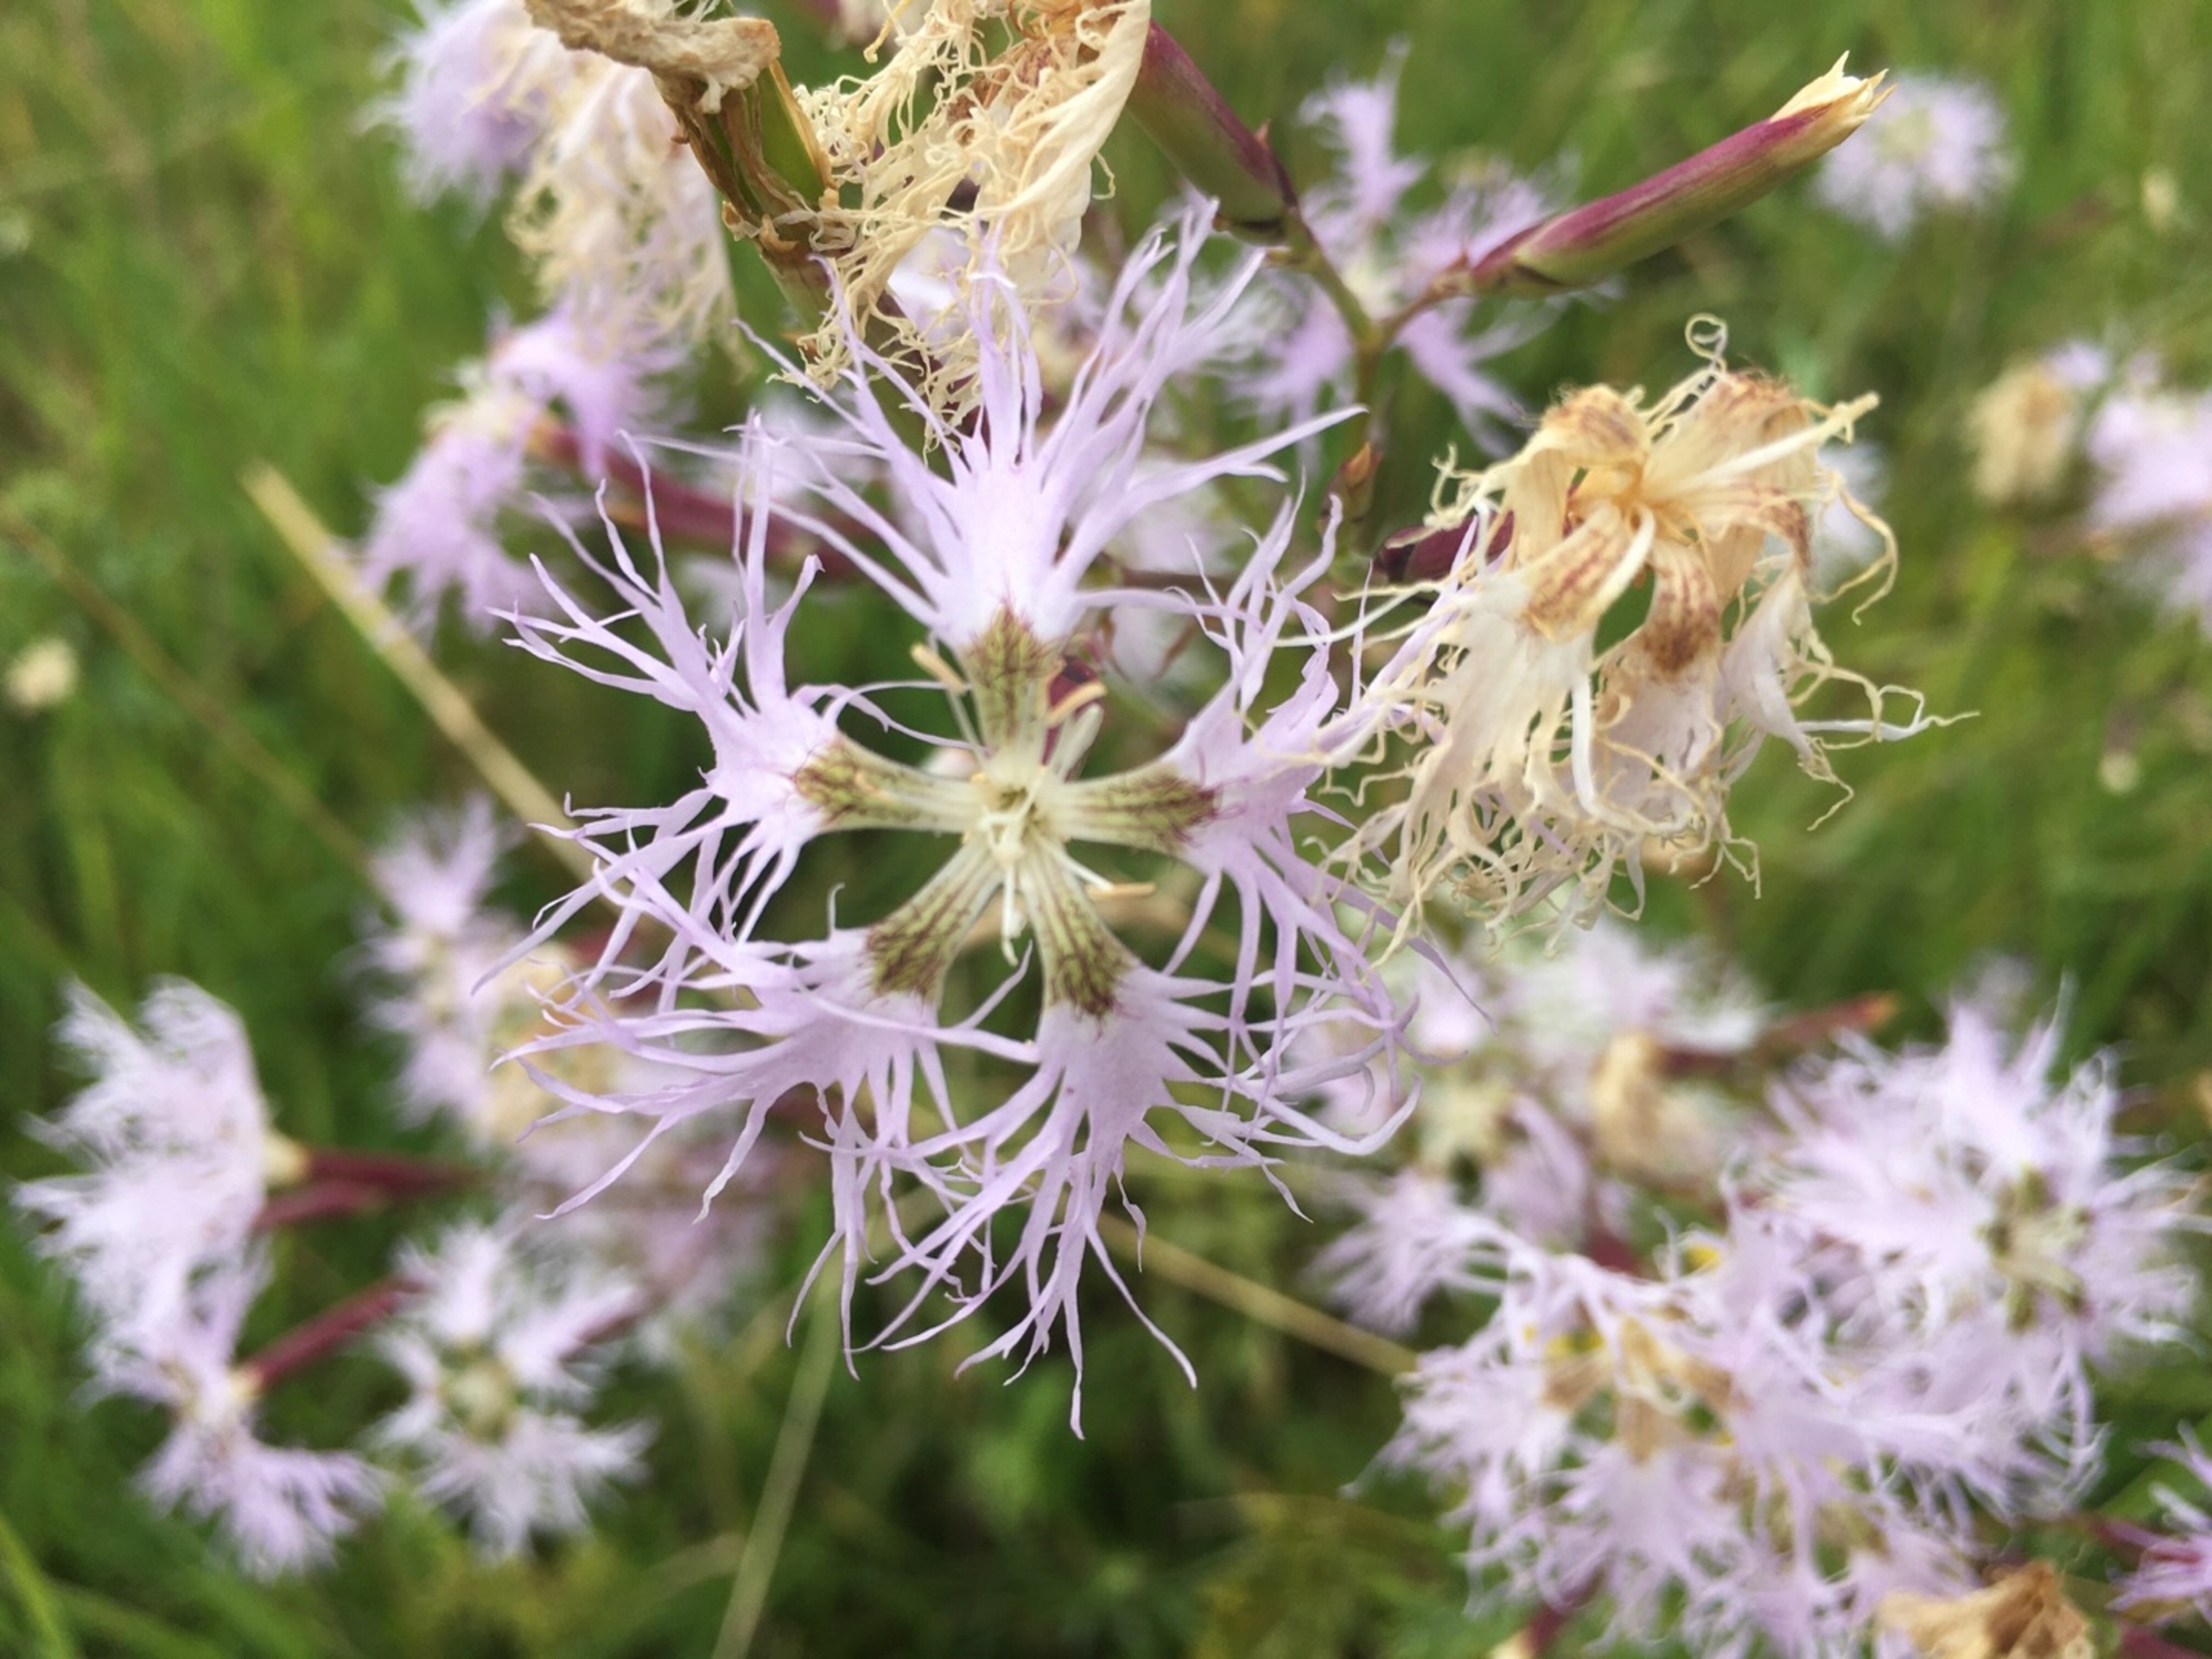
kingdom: Plantae
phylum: Tracheophyta
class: Magnoliopsida
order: Caryophyllales
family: Caryophyllaceae
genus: Dianthus
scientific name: Dianthus superbus
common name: Strand-nellike
